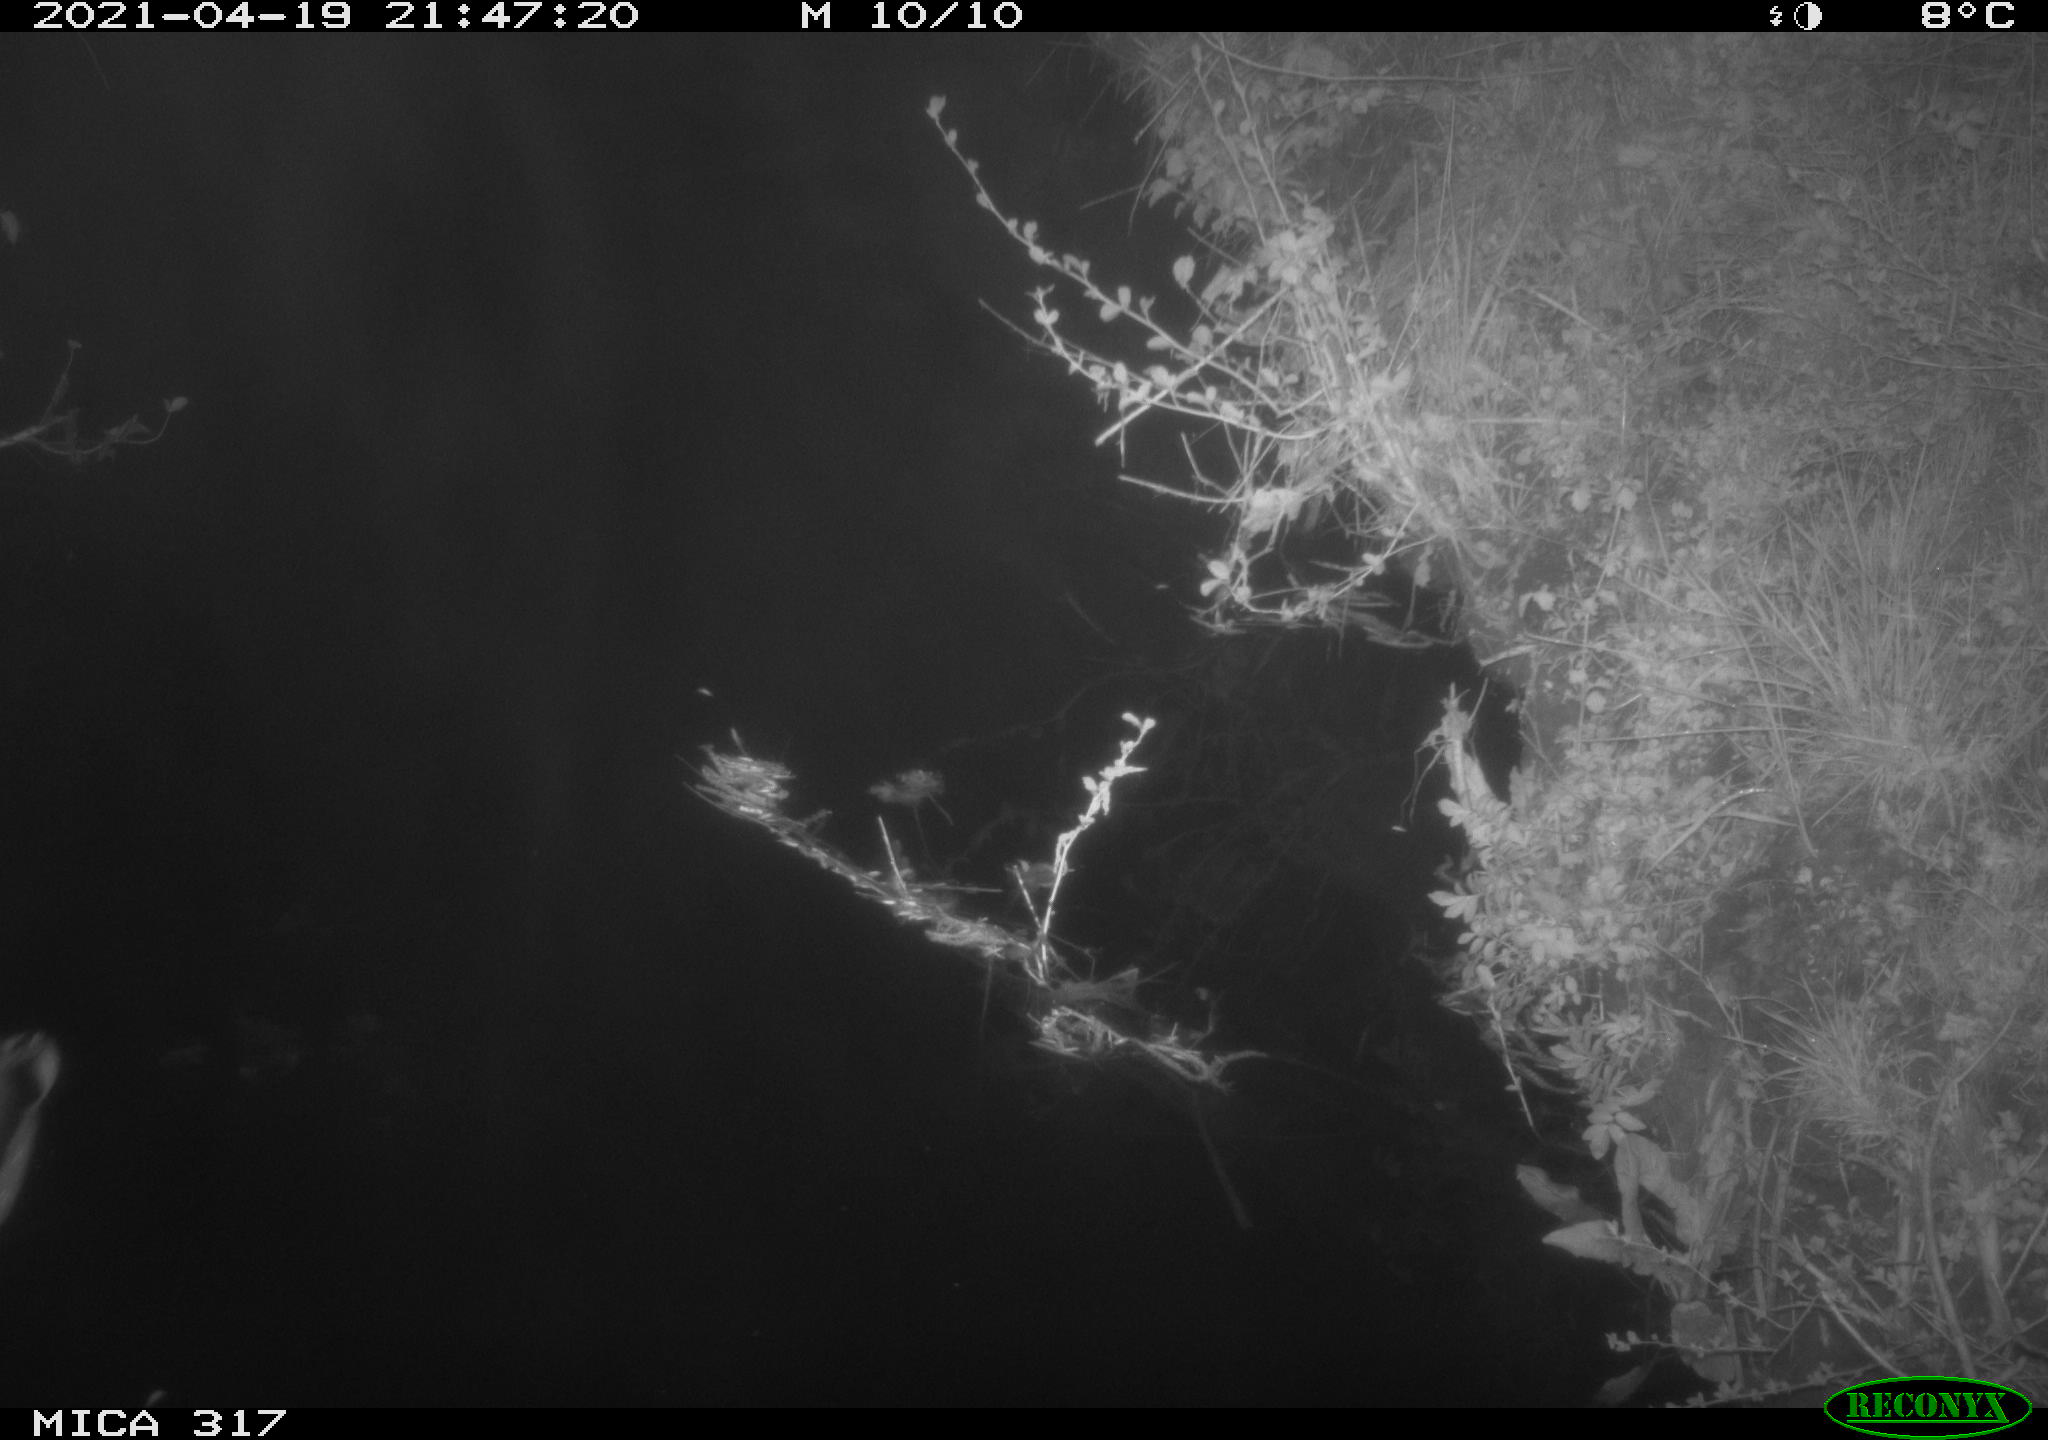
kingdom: Animalia
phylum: Chordata
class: Aves
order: Anseriformes
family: Anatidae
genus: Anas
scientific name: Anas platyrhynchos
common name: Mallard
